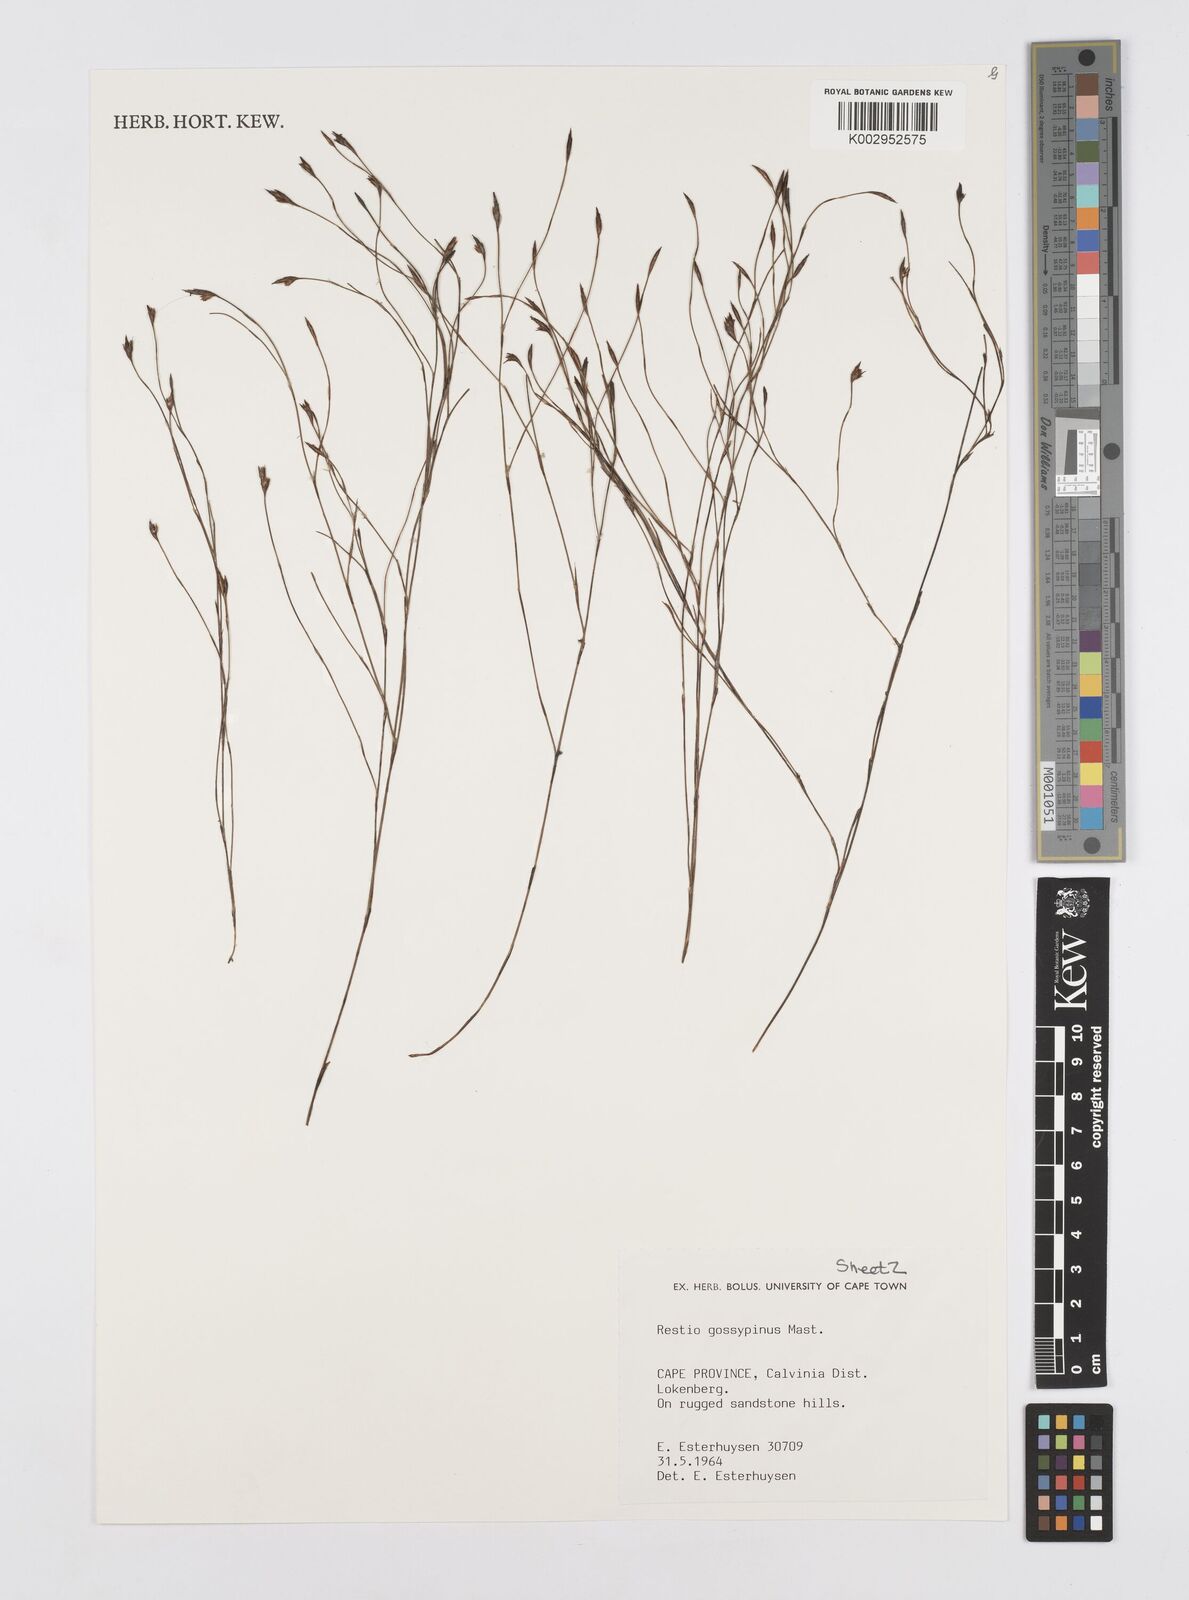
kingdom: Plantae
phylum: Tracheophyta
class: Liliopsida
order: Poales
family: Restionaceae
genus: Restio
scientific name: Restio gossypinus
